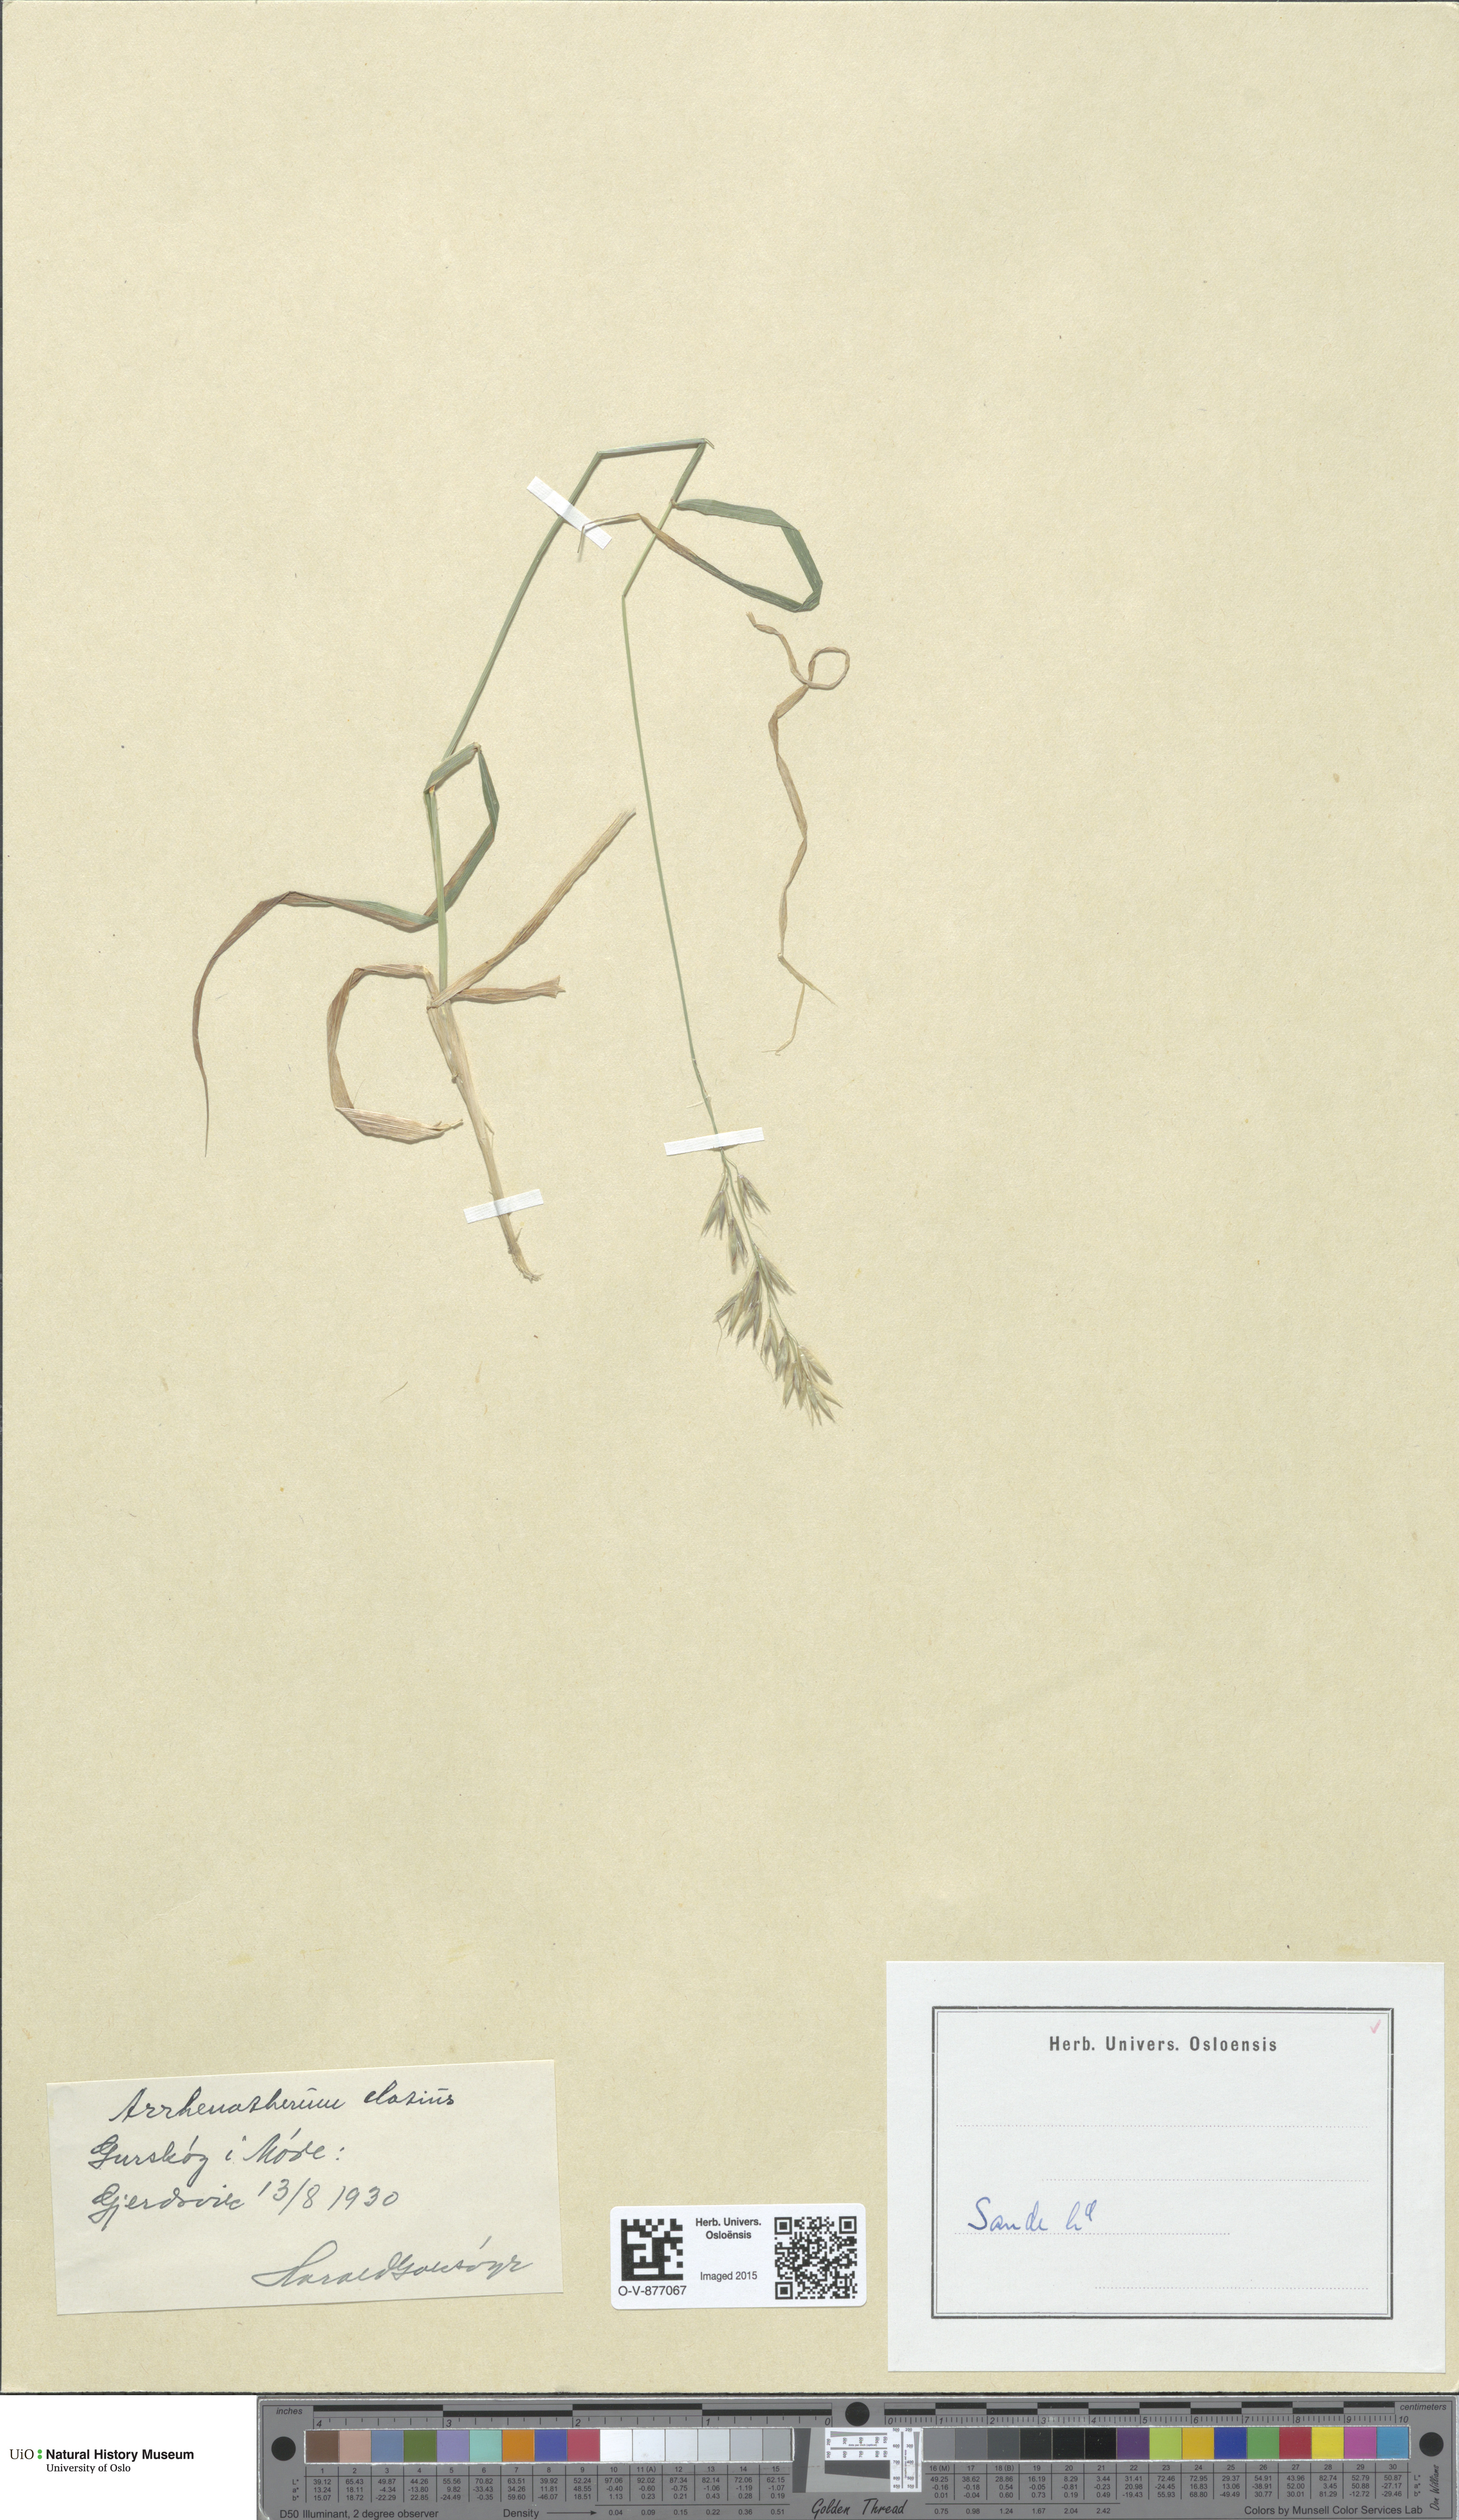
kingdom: Plantae
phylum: Tracheophyta
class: Liliopsida
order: Poales
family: Poaceae
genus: Arrhenatherum
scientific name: Arrhenatherum elatius
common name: Tall oatgrass
